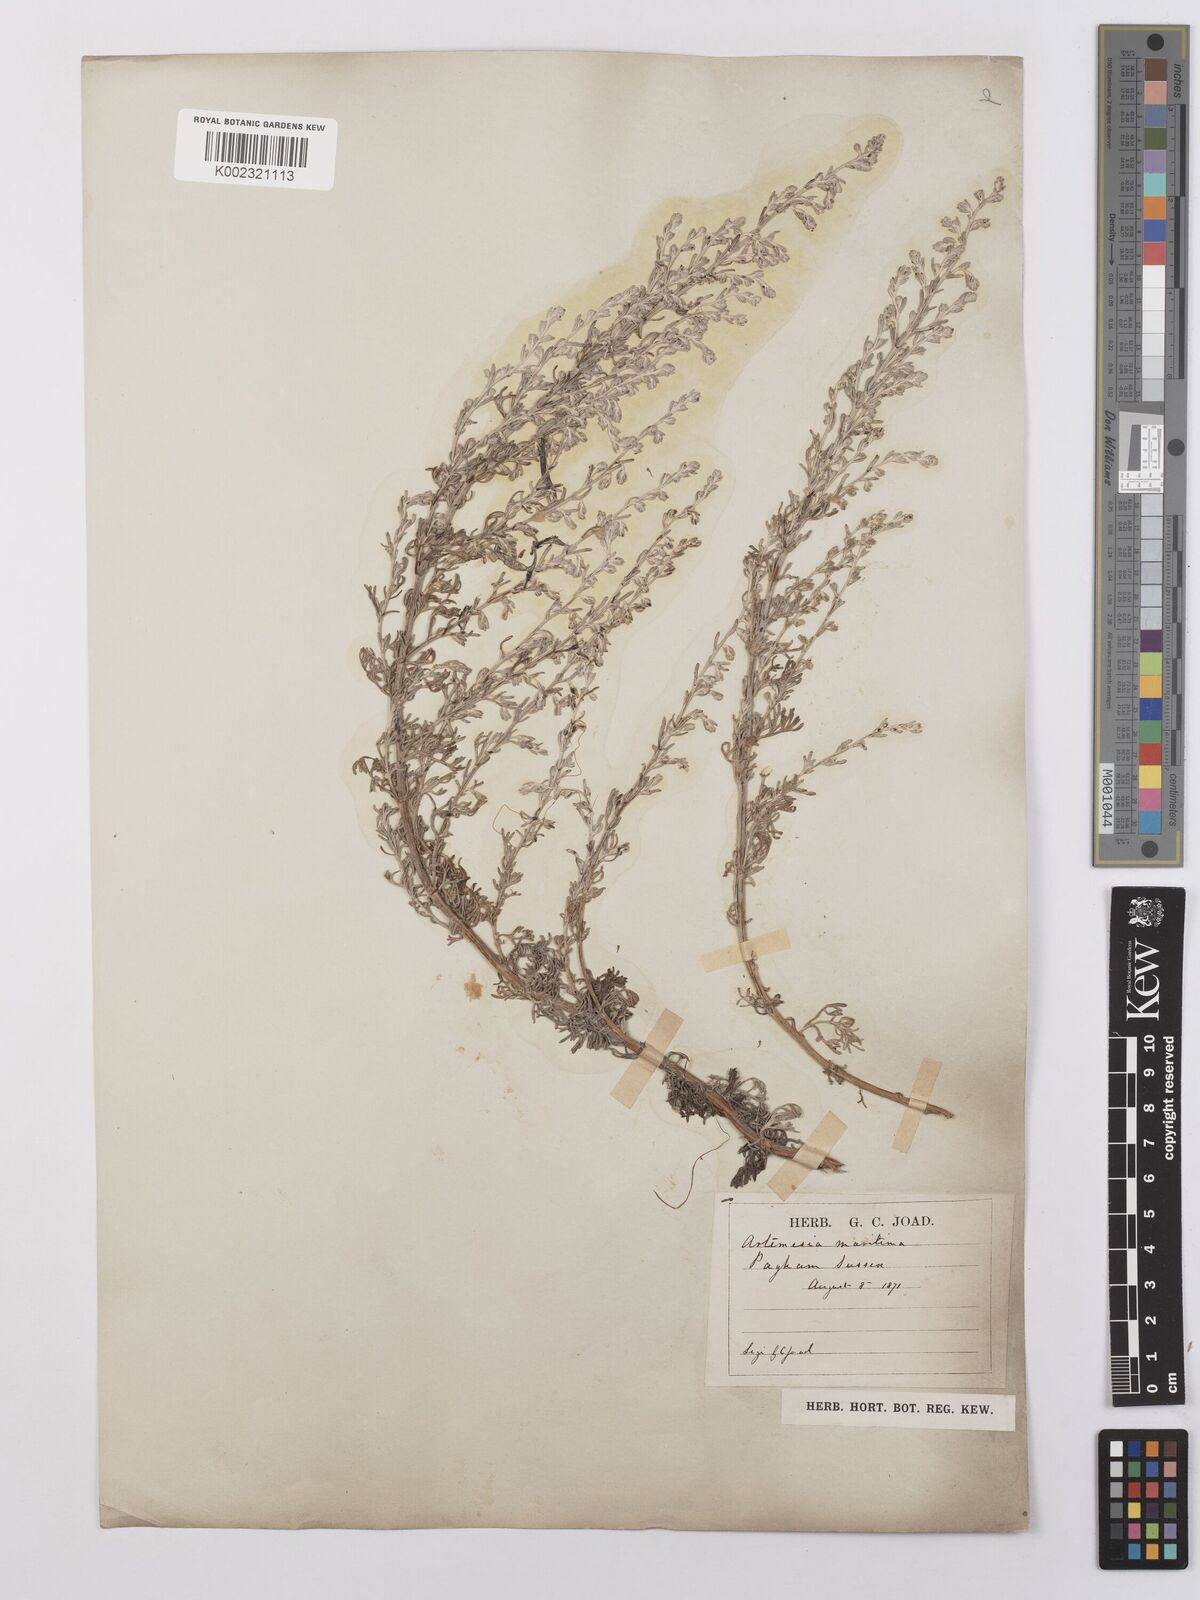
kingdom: Plantae
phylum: Tracheophyta
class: Magnoliopsida
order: Asterales
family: Asteraceae
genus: Artemisia
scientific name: Artemisia maritima
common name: Wormseed
